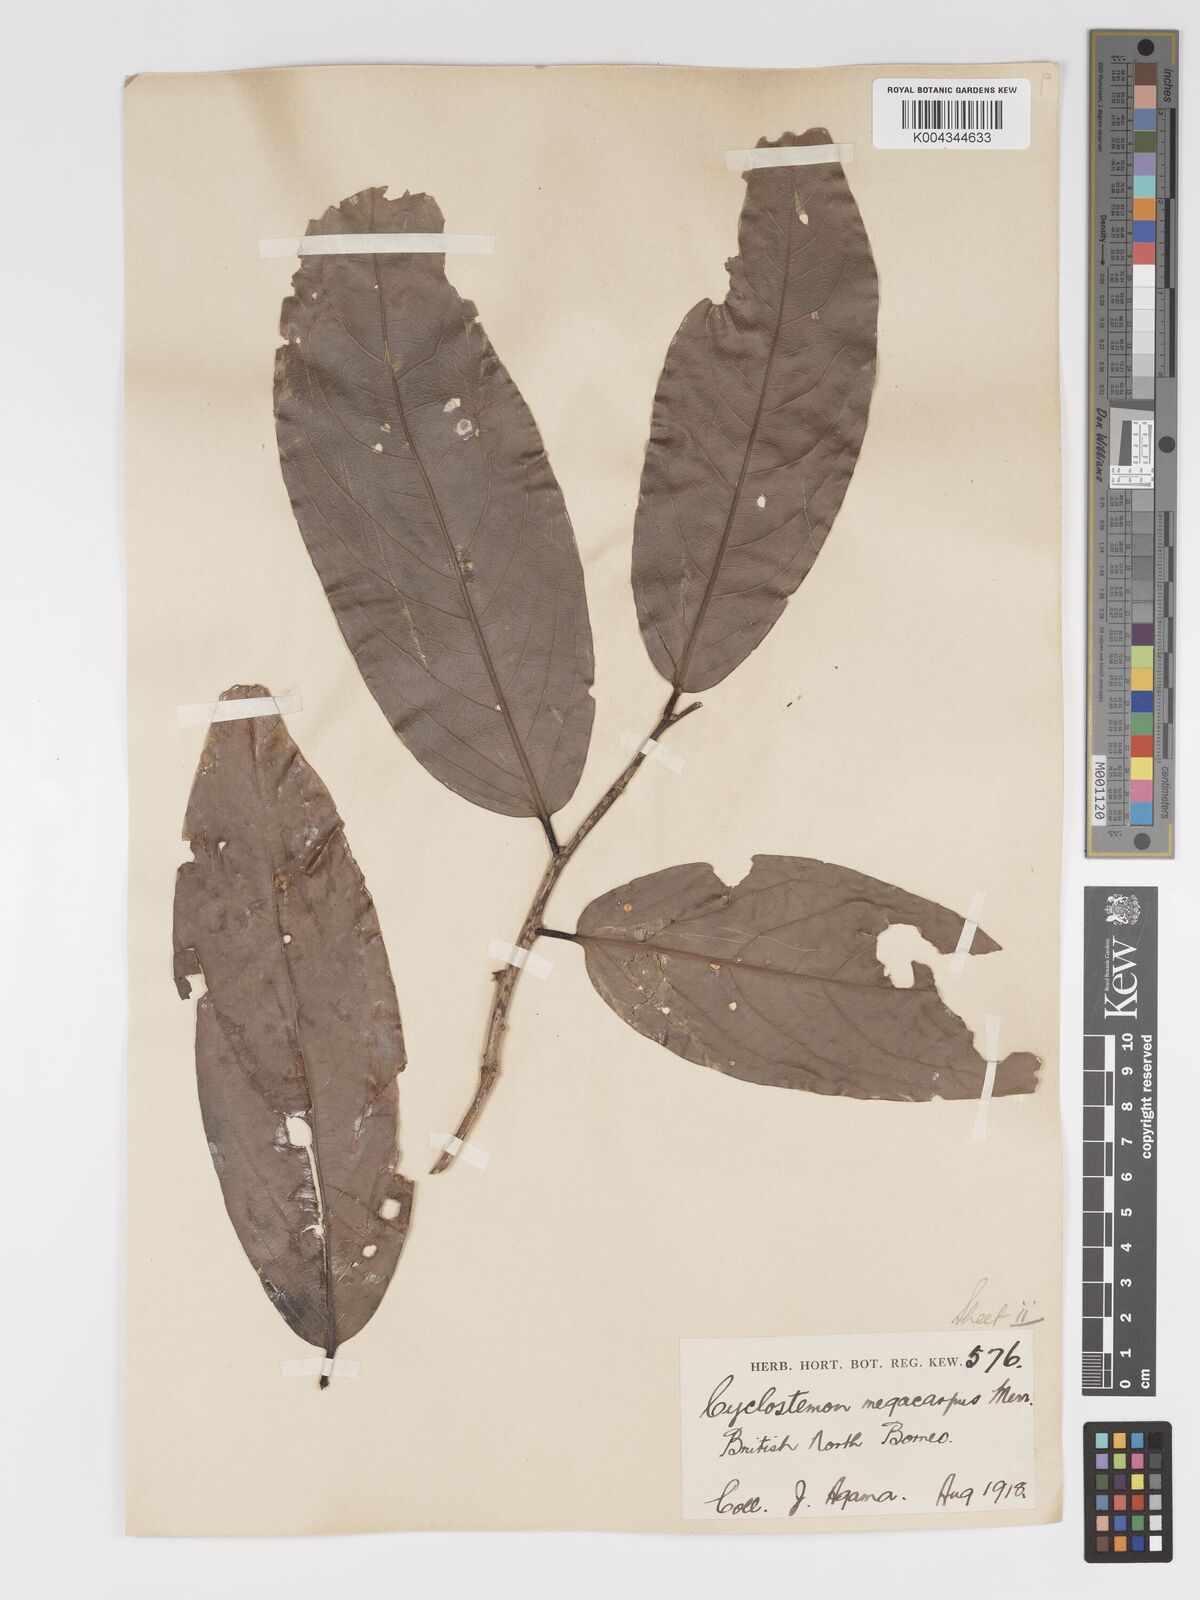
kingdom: Plantae
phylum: Tracheophyta
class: Magnoliopsida
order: Malpighiales
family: Putranjivaceae
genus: Drypetes
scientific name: Drypetes longifolia
